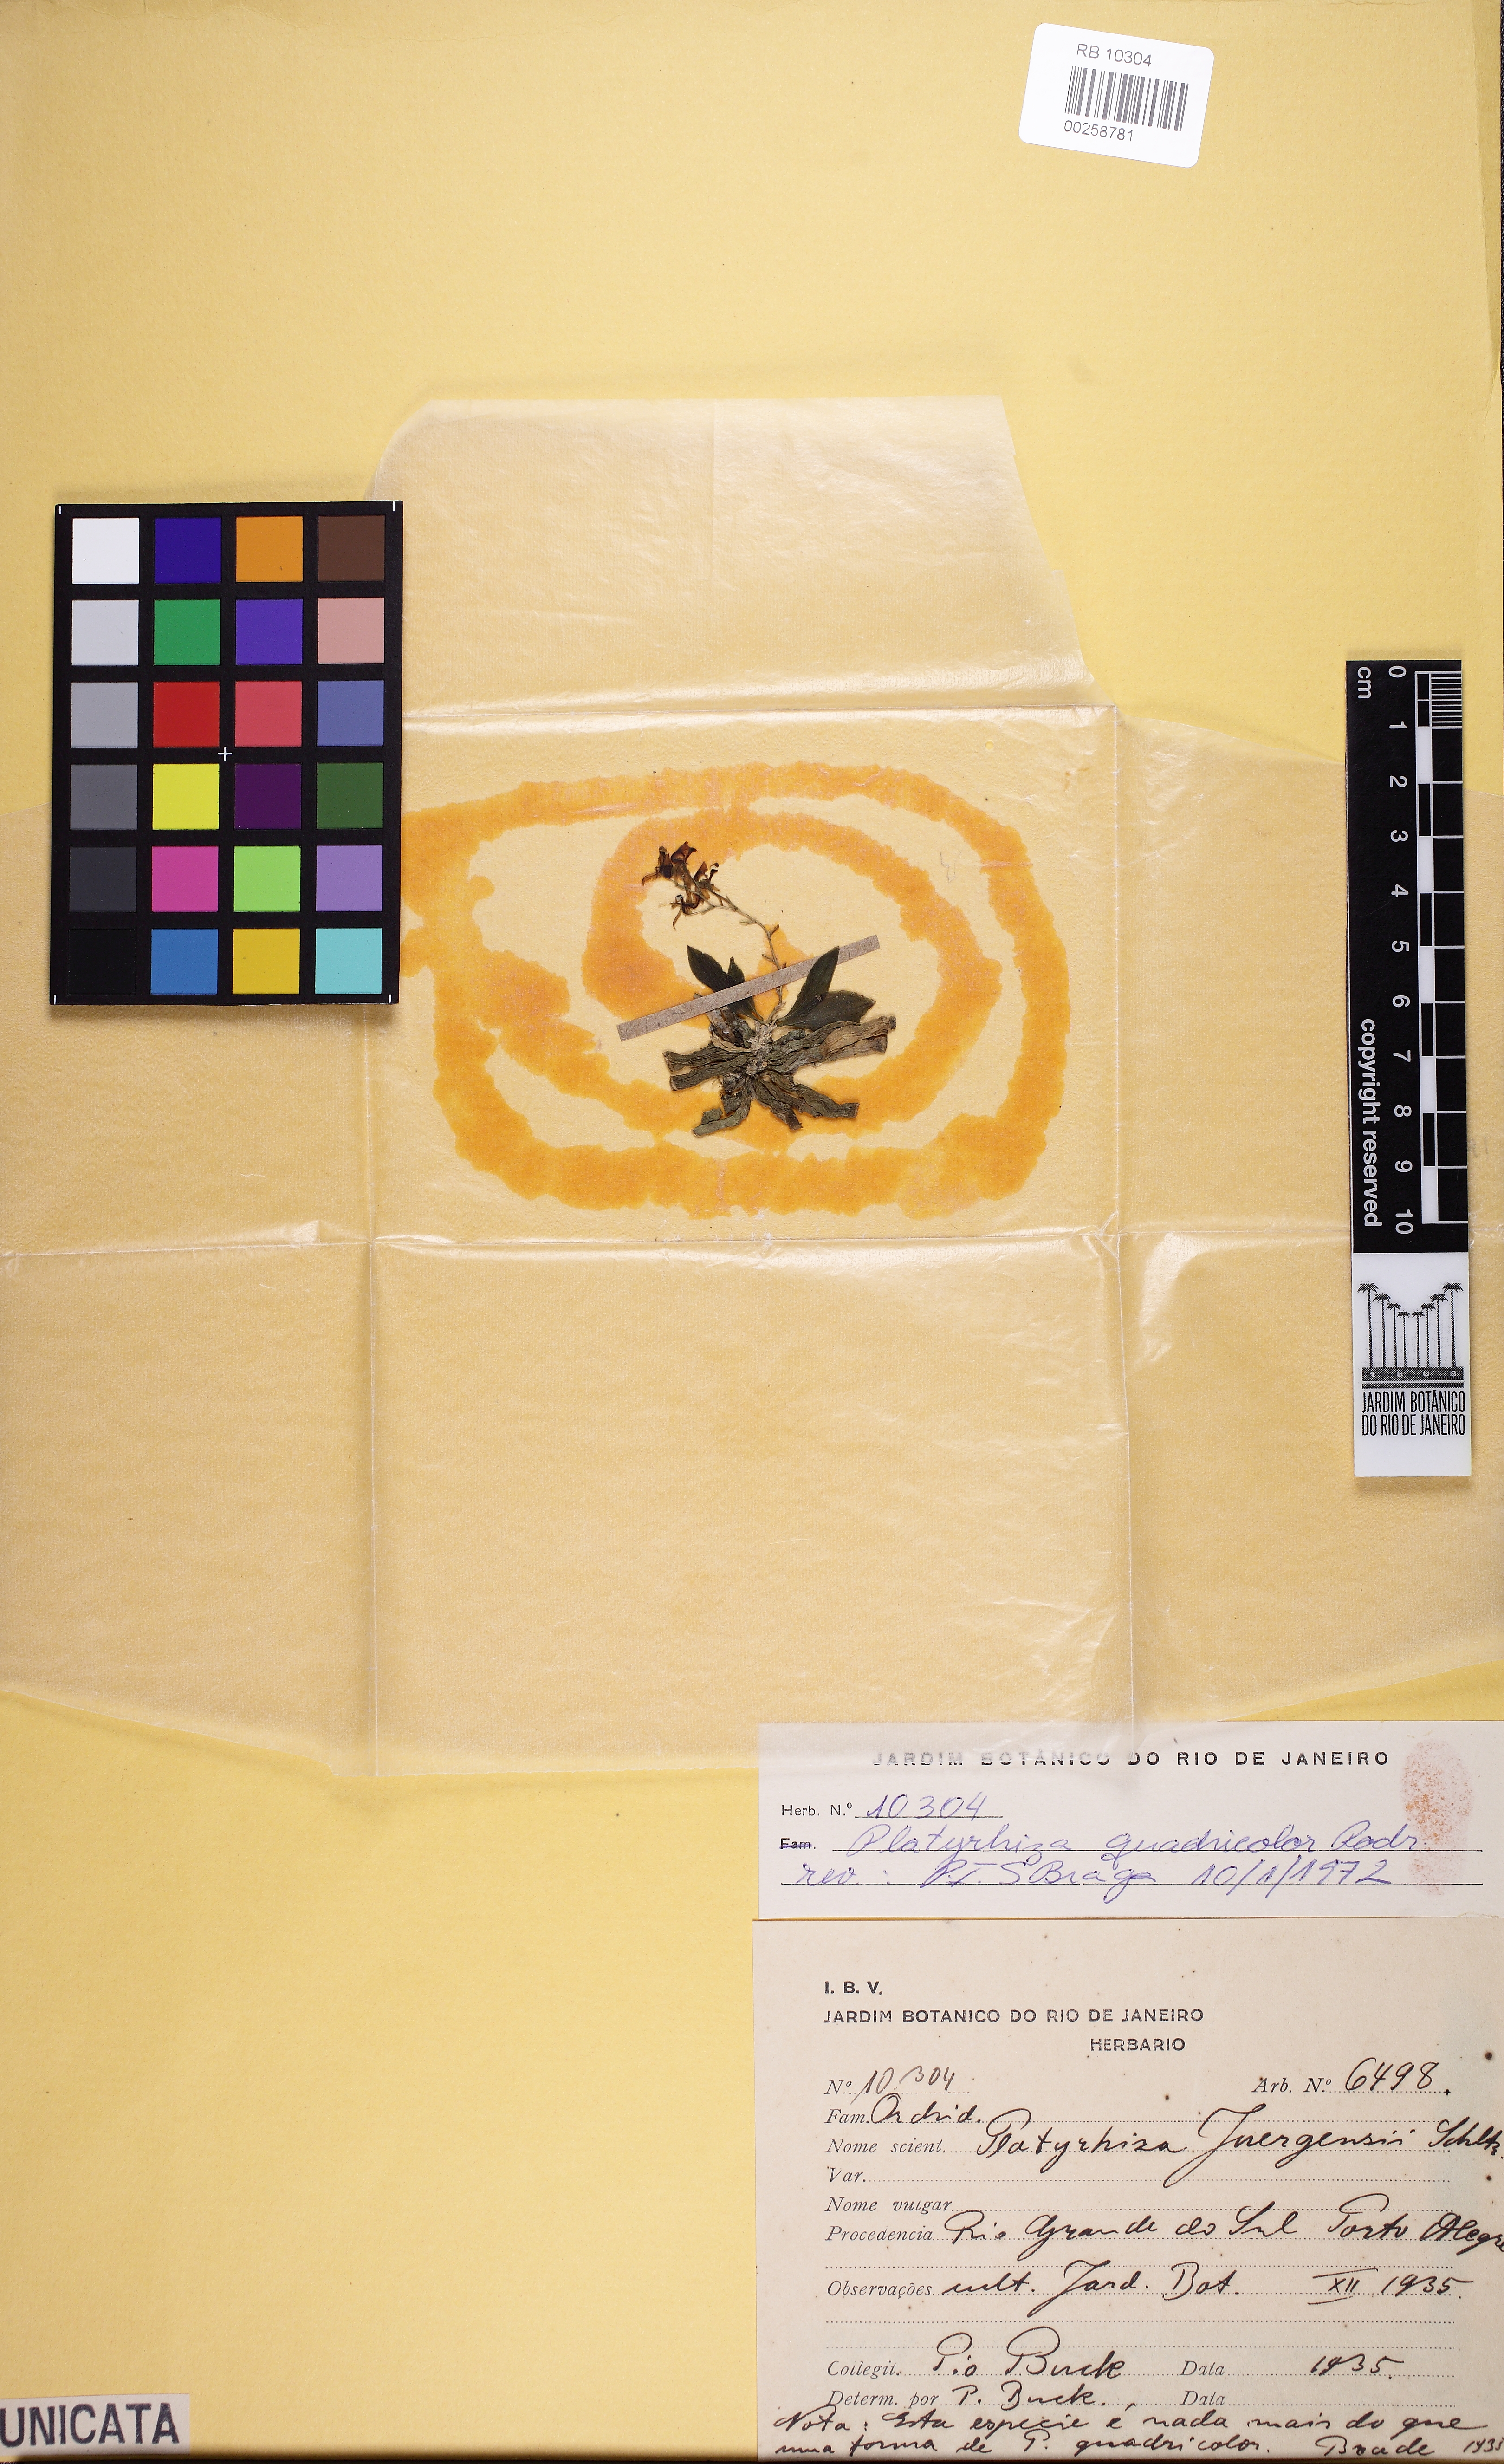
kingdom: Plantae
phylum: Tracheophyta
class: Liliopsida
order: Asparagales
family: Orchidaceae
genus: Platyrhiza
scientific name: Platyrhiza quadricolor
